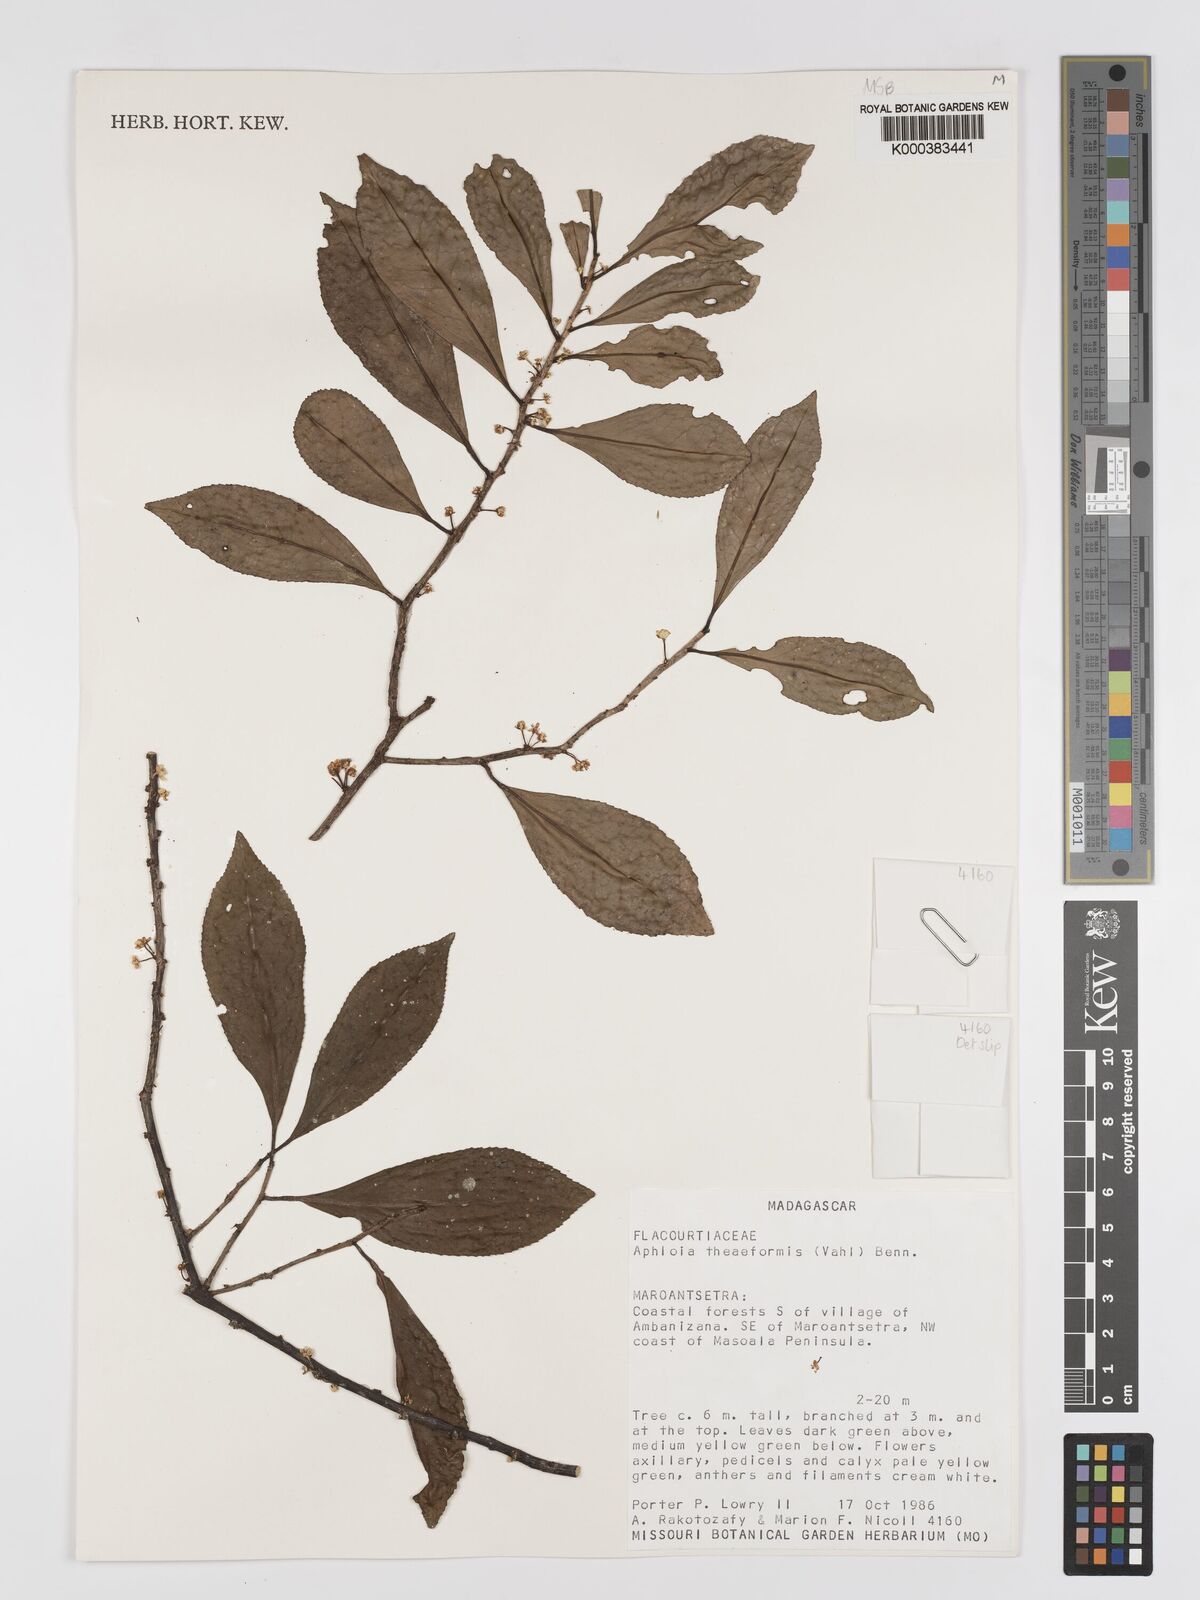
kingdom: Plantae
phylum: Tracheophyta
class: Magnoliopsida
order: Crossosomatales
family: Aphloiaceae
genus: Aphloia
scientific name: Aphloia theiformis
